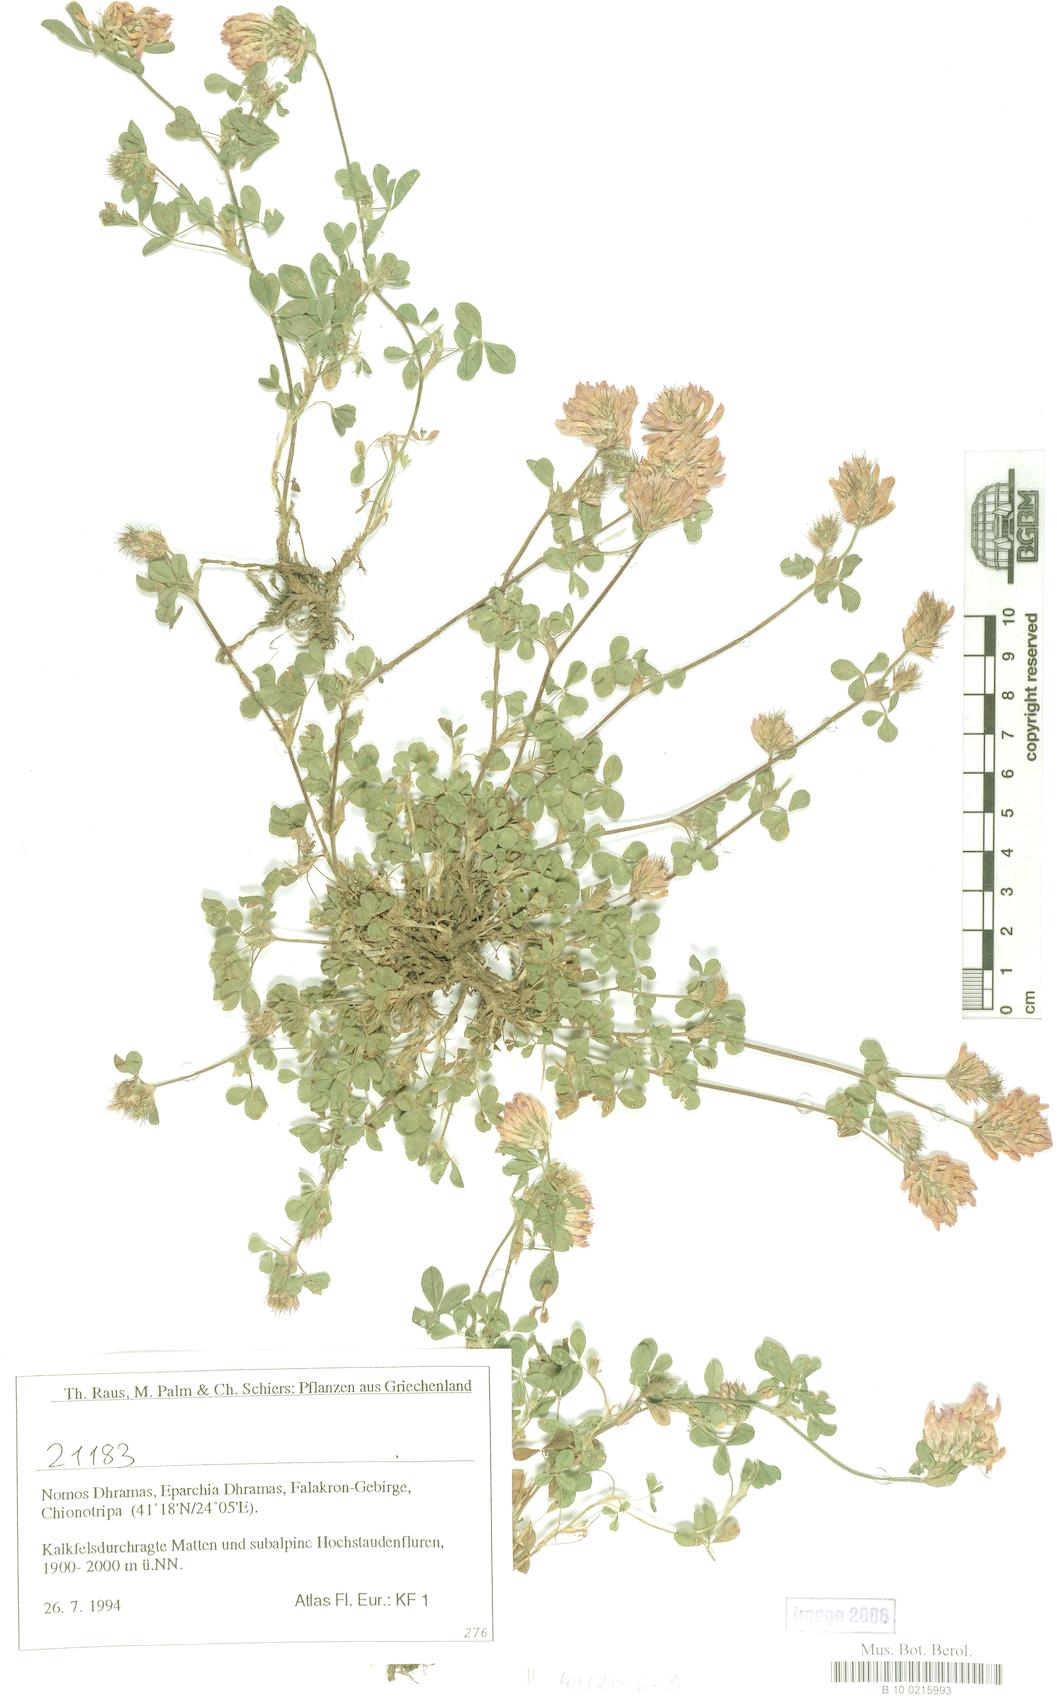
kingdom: Plantae
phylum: Tracheophyta
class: Magnoliopsida
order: Fabales
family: Fabaceae
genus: Trifolium
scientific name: Trifolium
